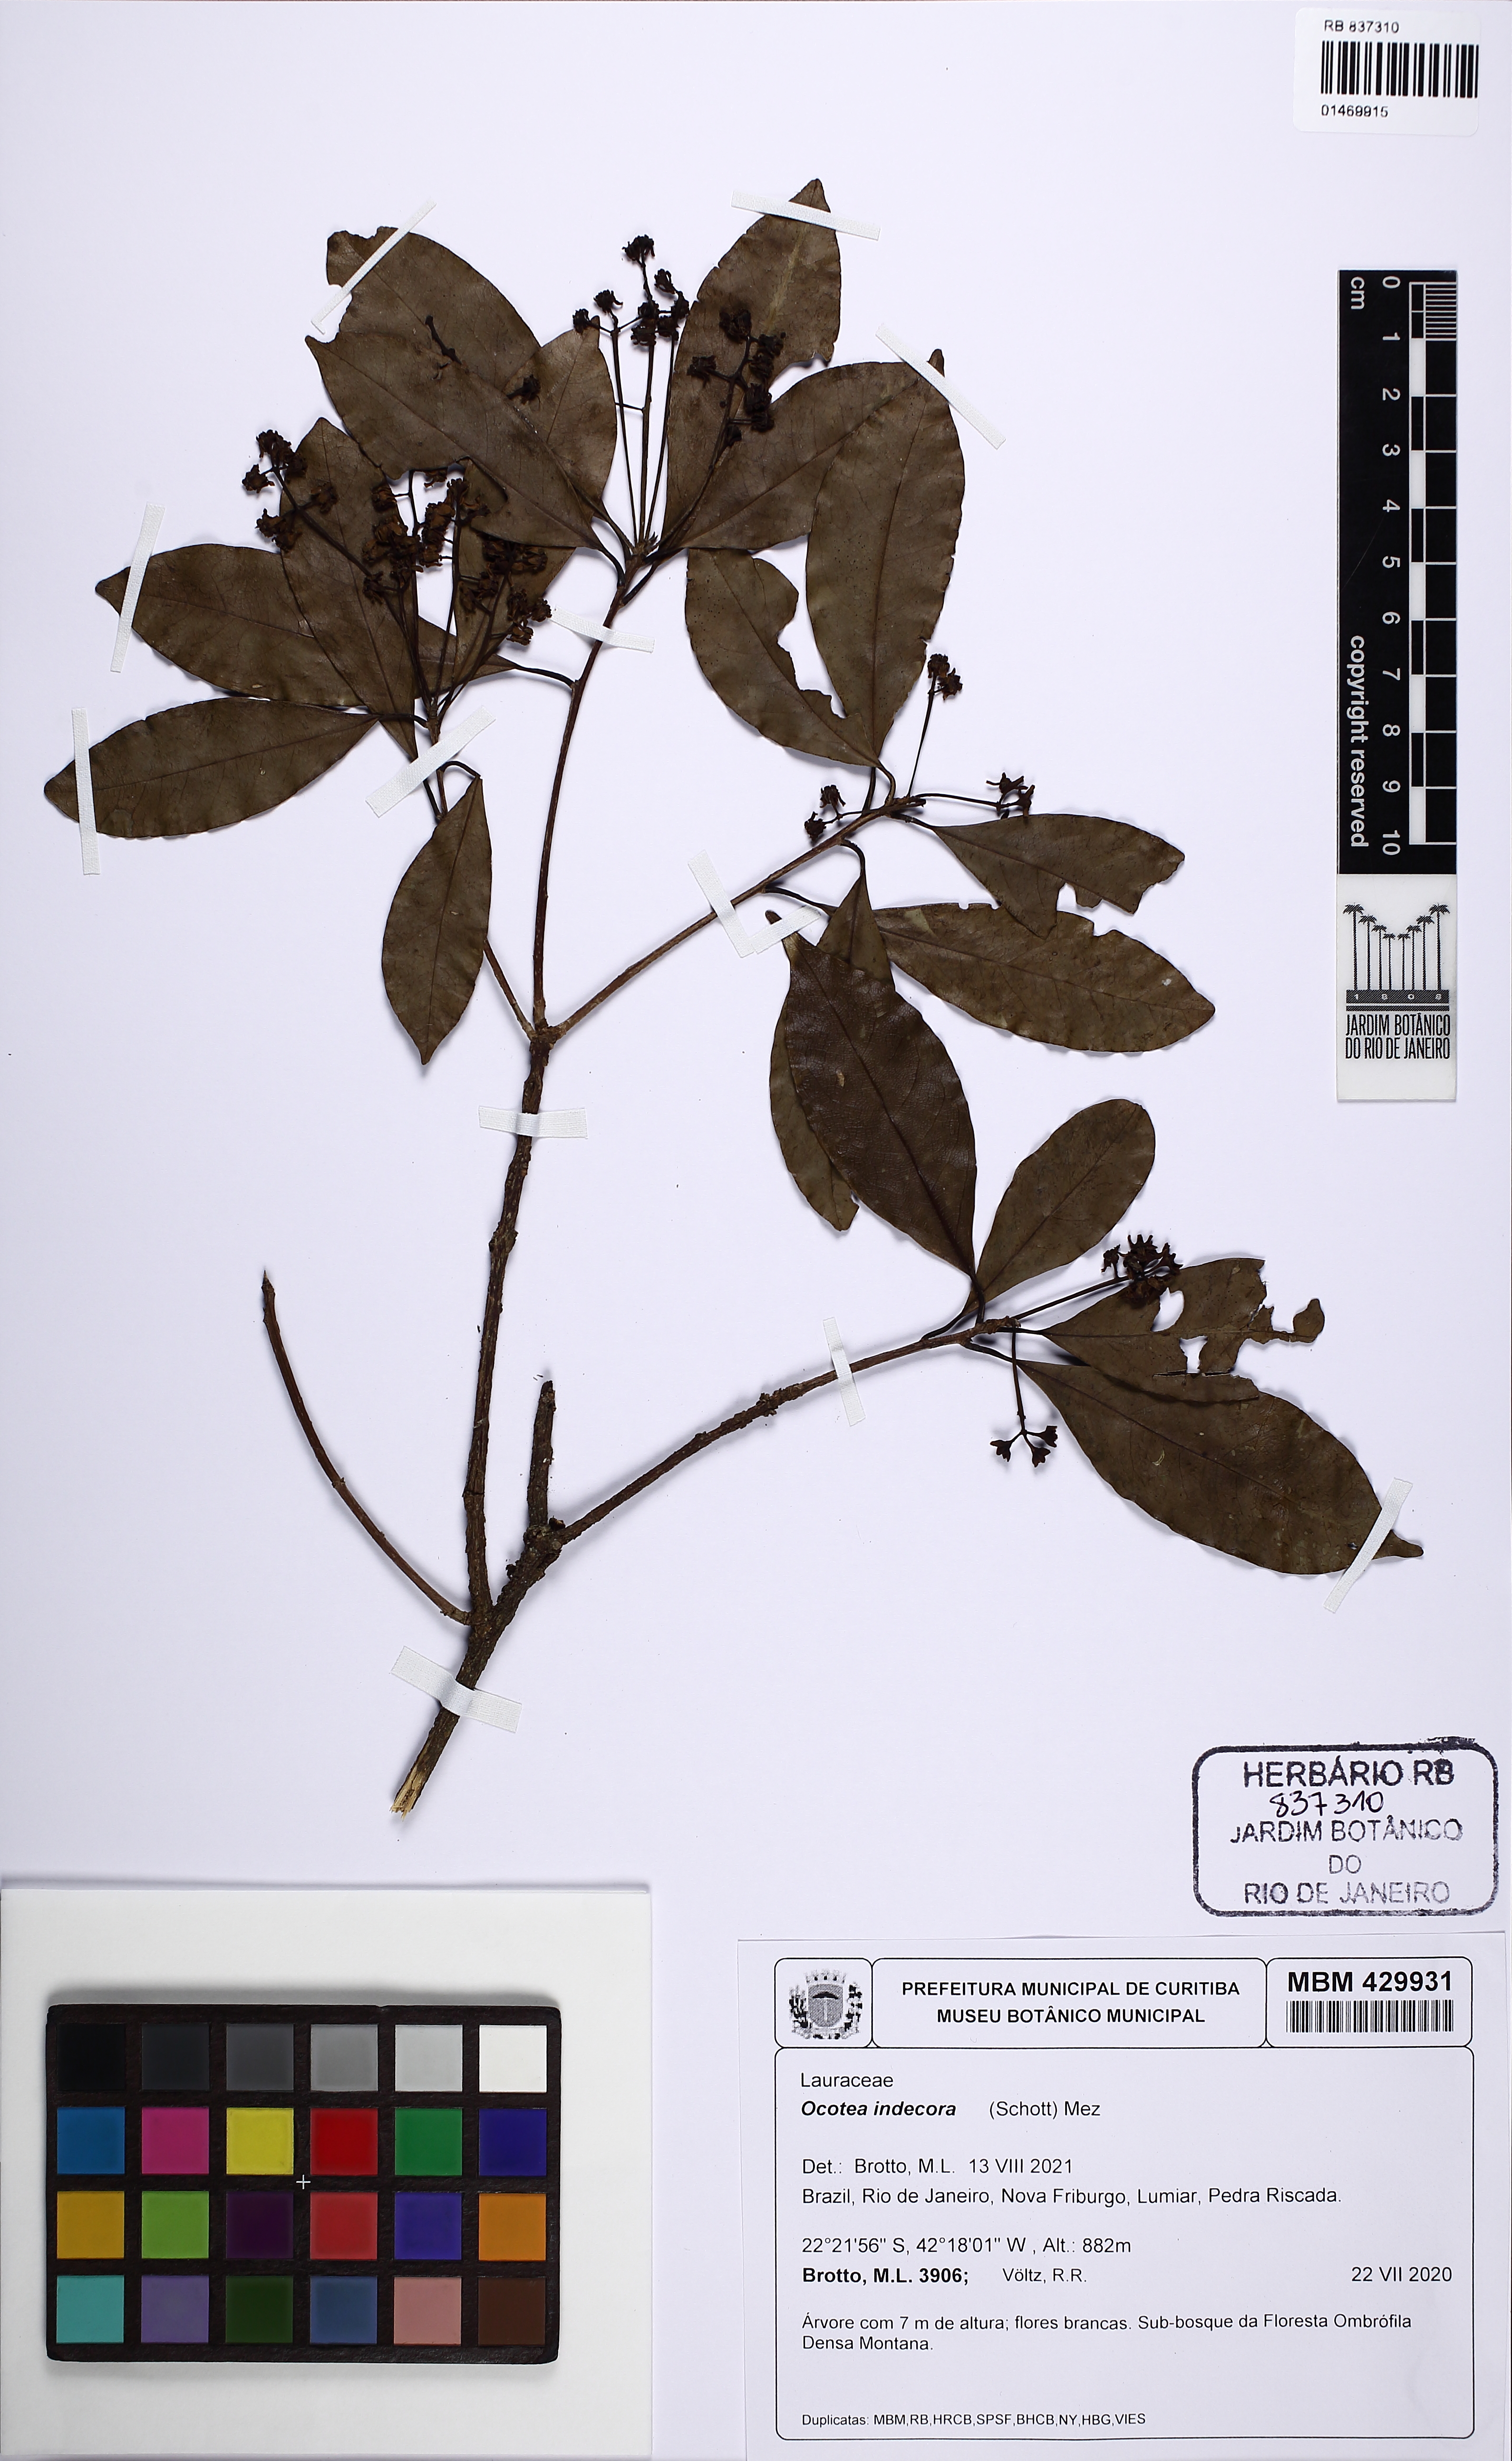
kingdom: Plantae
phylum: Tracheophyta
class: Magnoliopsida
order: Laurales
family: Lauraceae
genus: Mespilodaphne
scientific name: Mespilodaphne indecora
